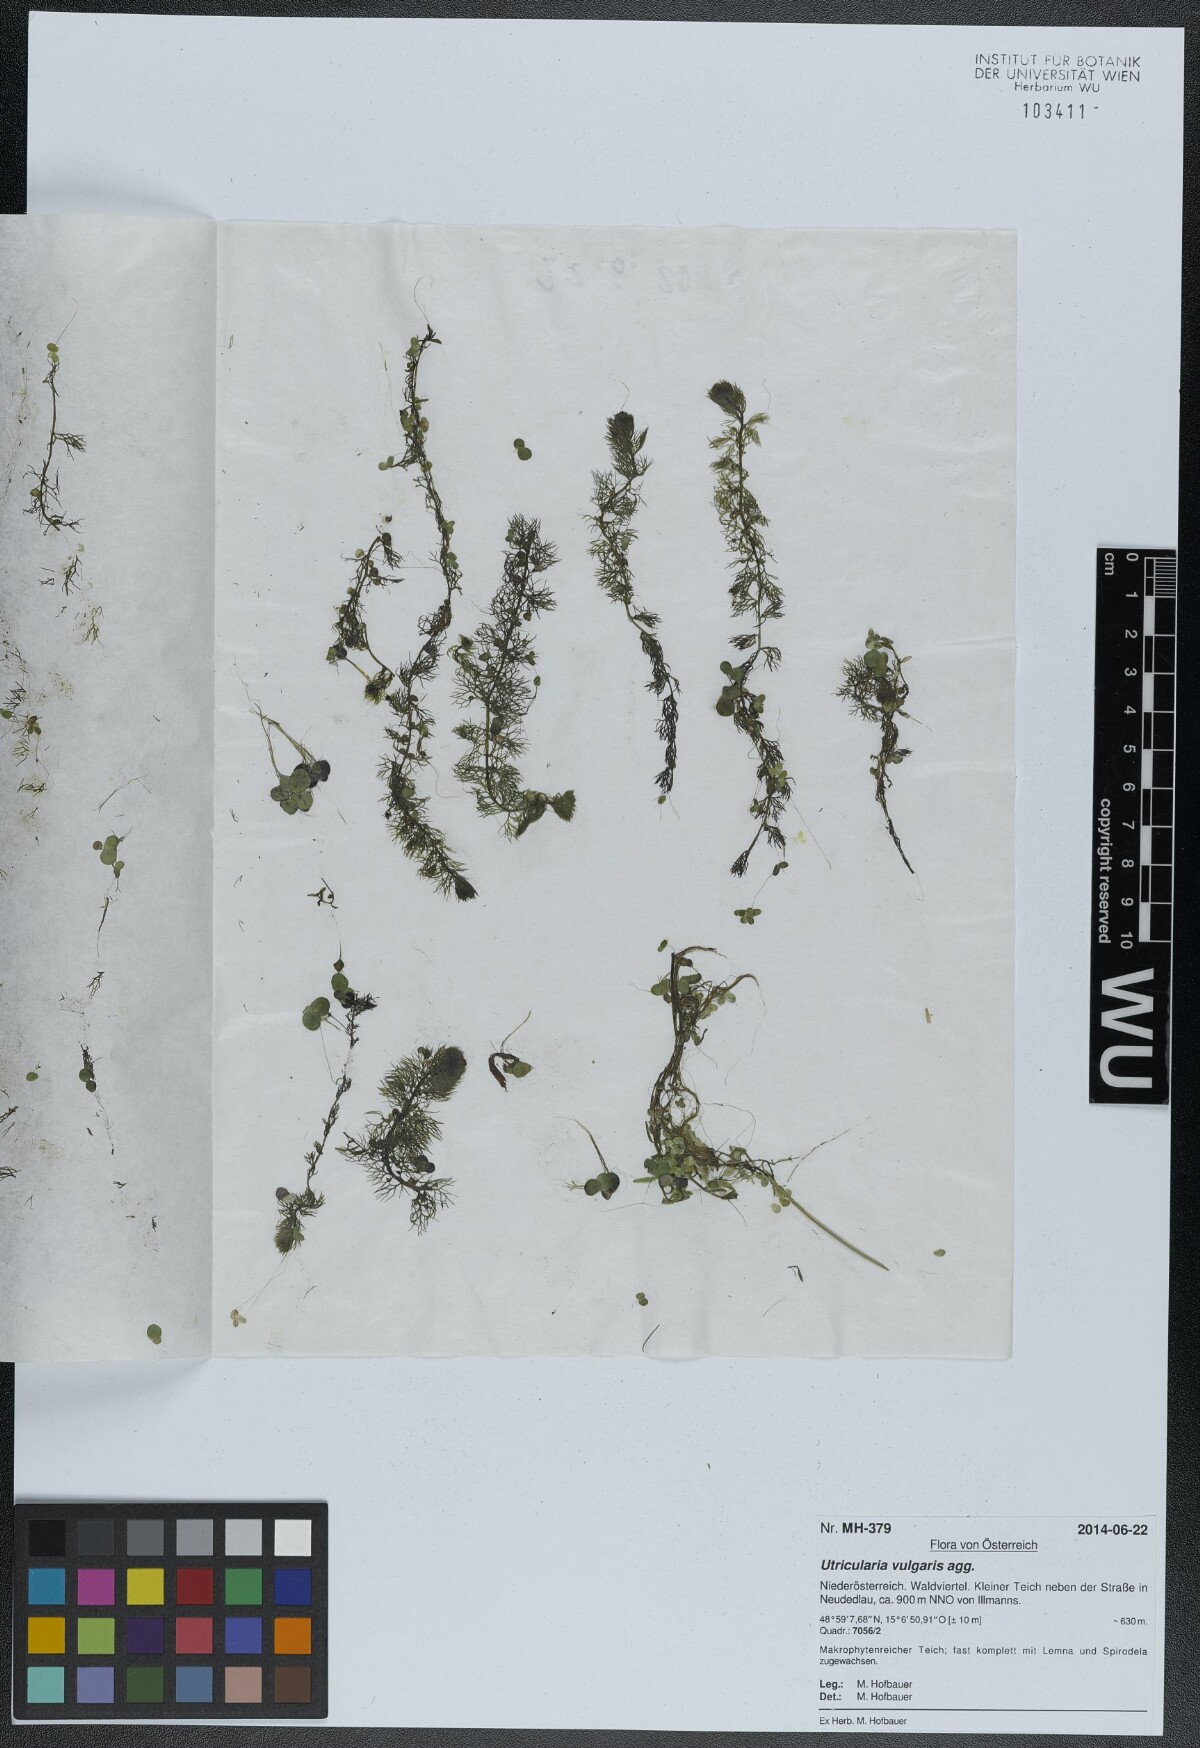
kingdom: Plantae
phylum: Tracheophyta
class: Magnoliopsida
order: Lamiales
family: Lentibulariaceae
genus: Utricularia
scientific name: Utricularia vulgaris
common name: Greater bladderwort
